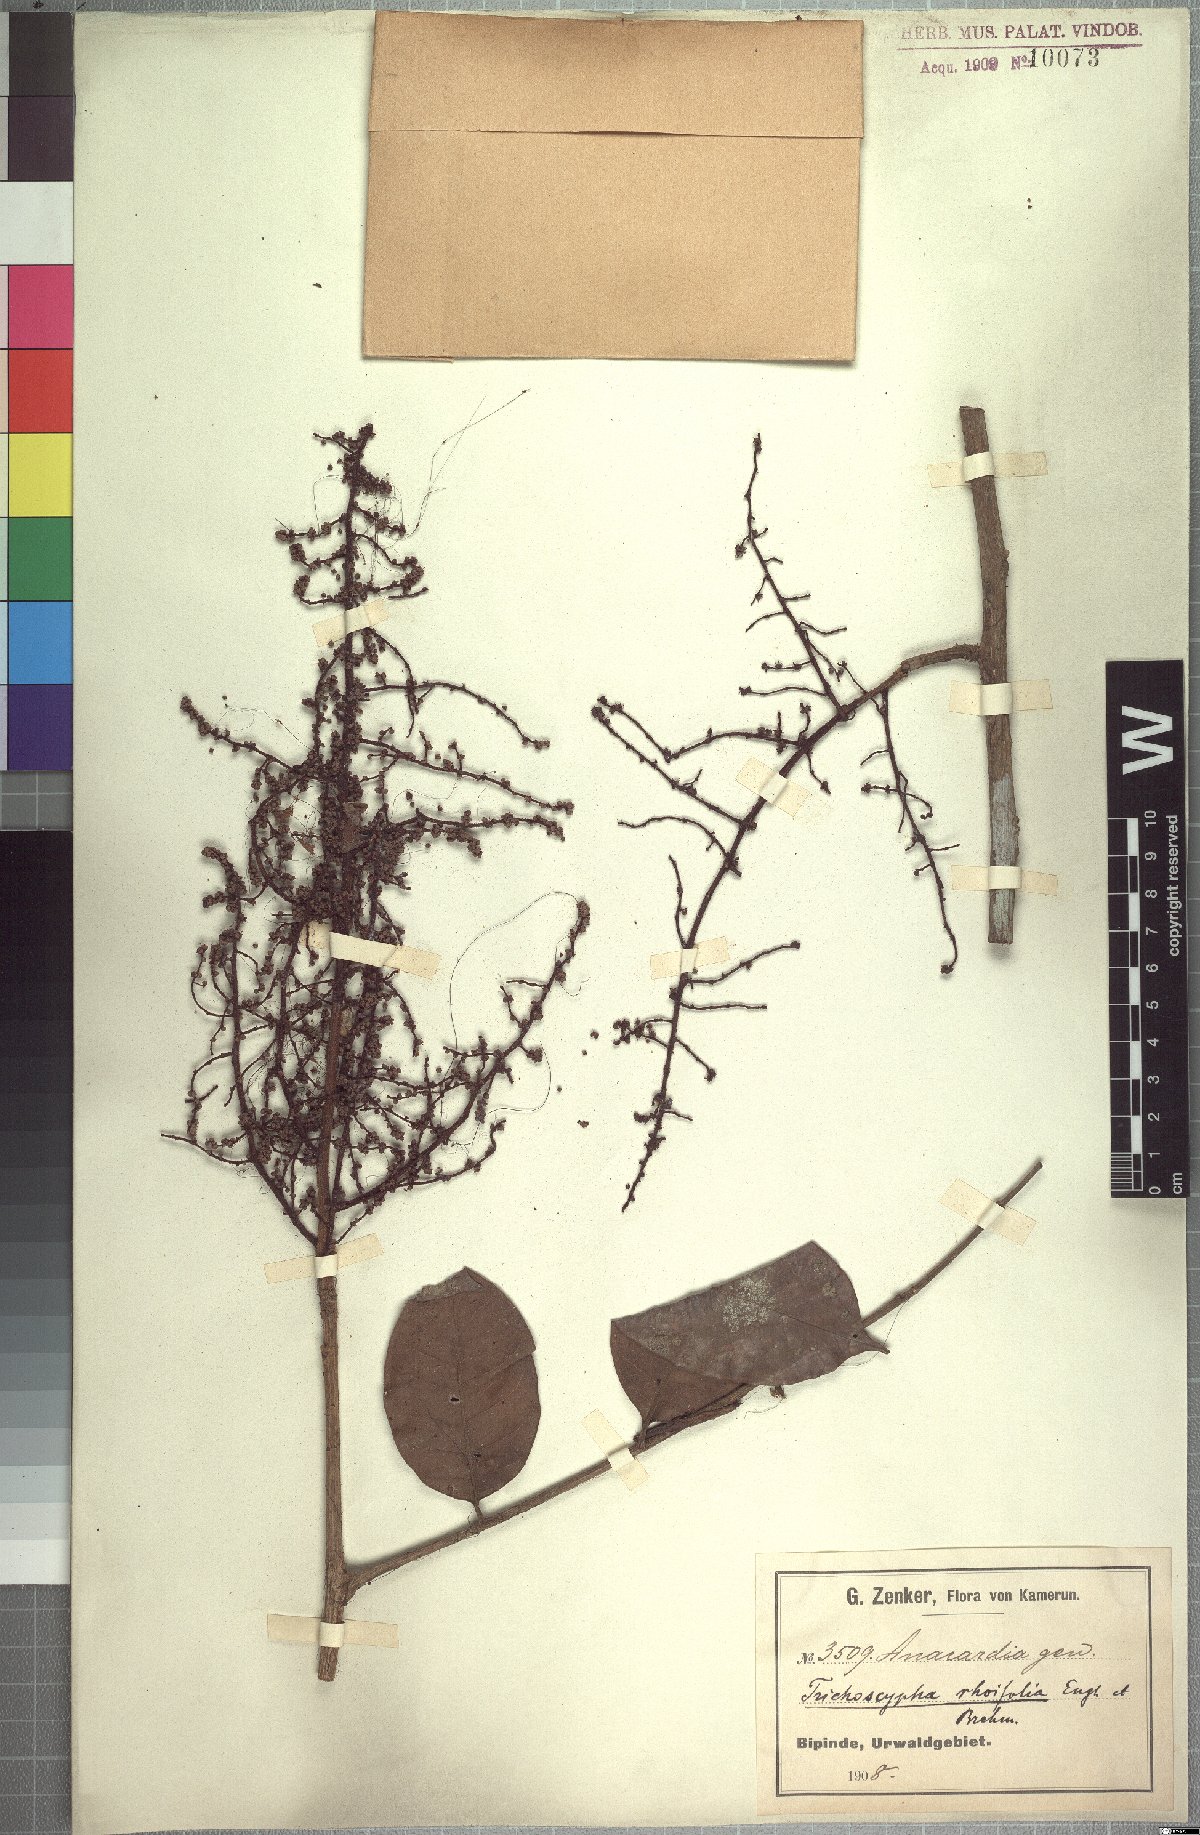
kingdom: Plantae
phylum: Tracheophyta
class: Magnoliopsida
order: Sapindales
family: Anacardiaceae
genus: Trichoscypha
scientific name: Trichoscypha lucens
